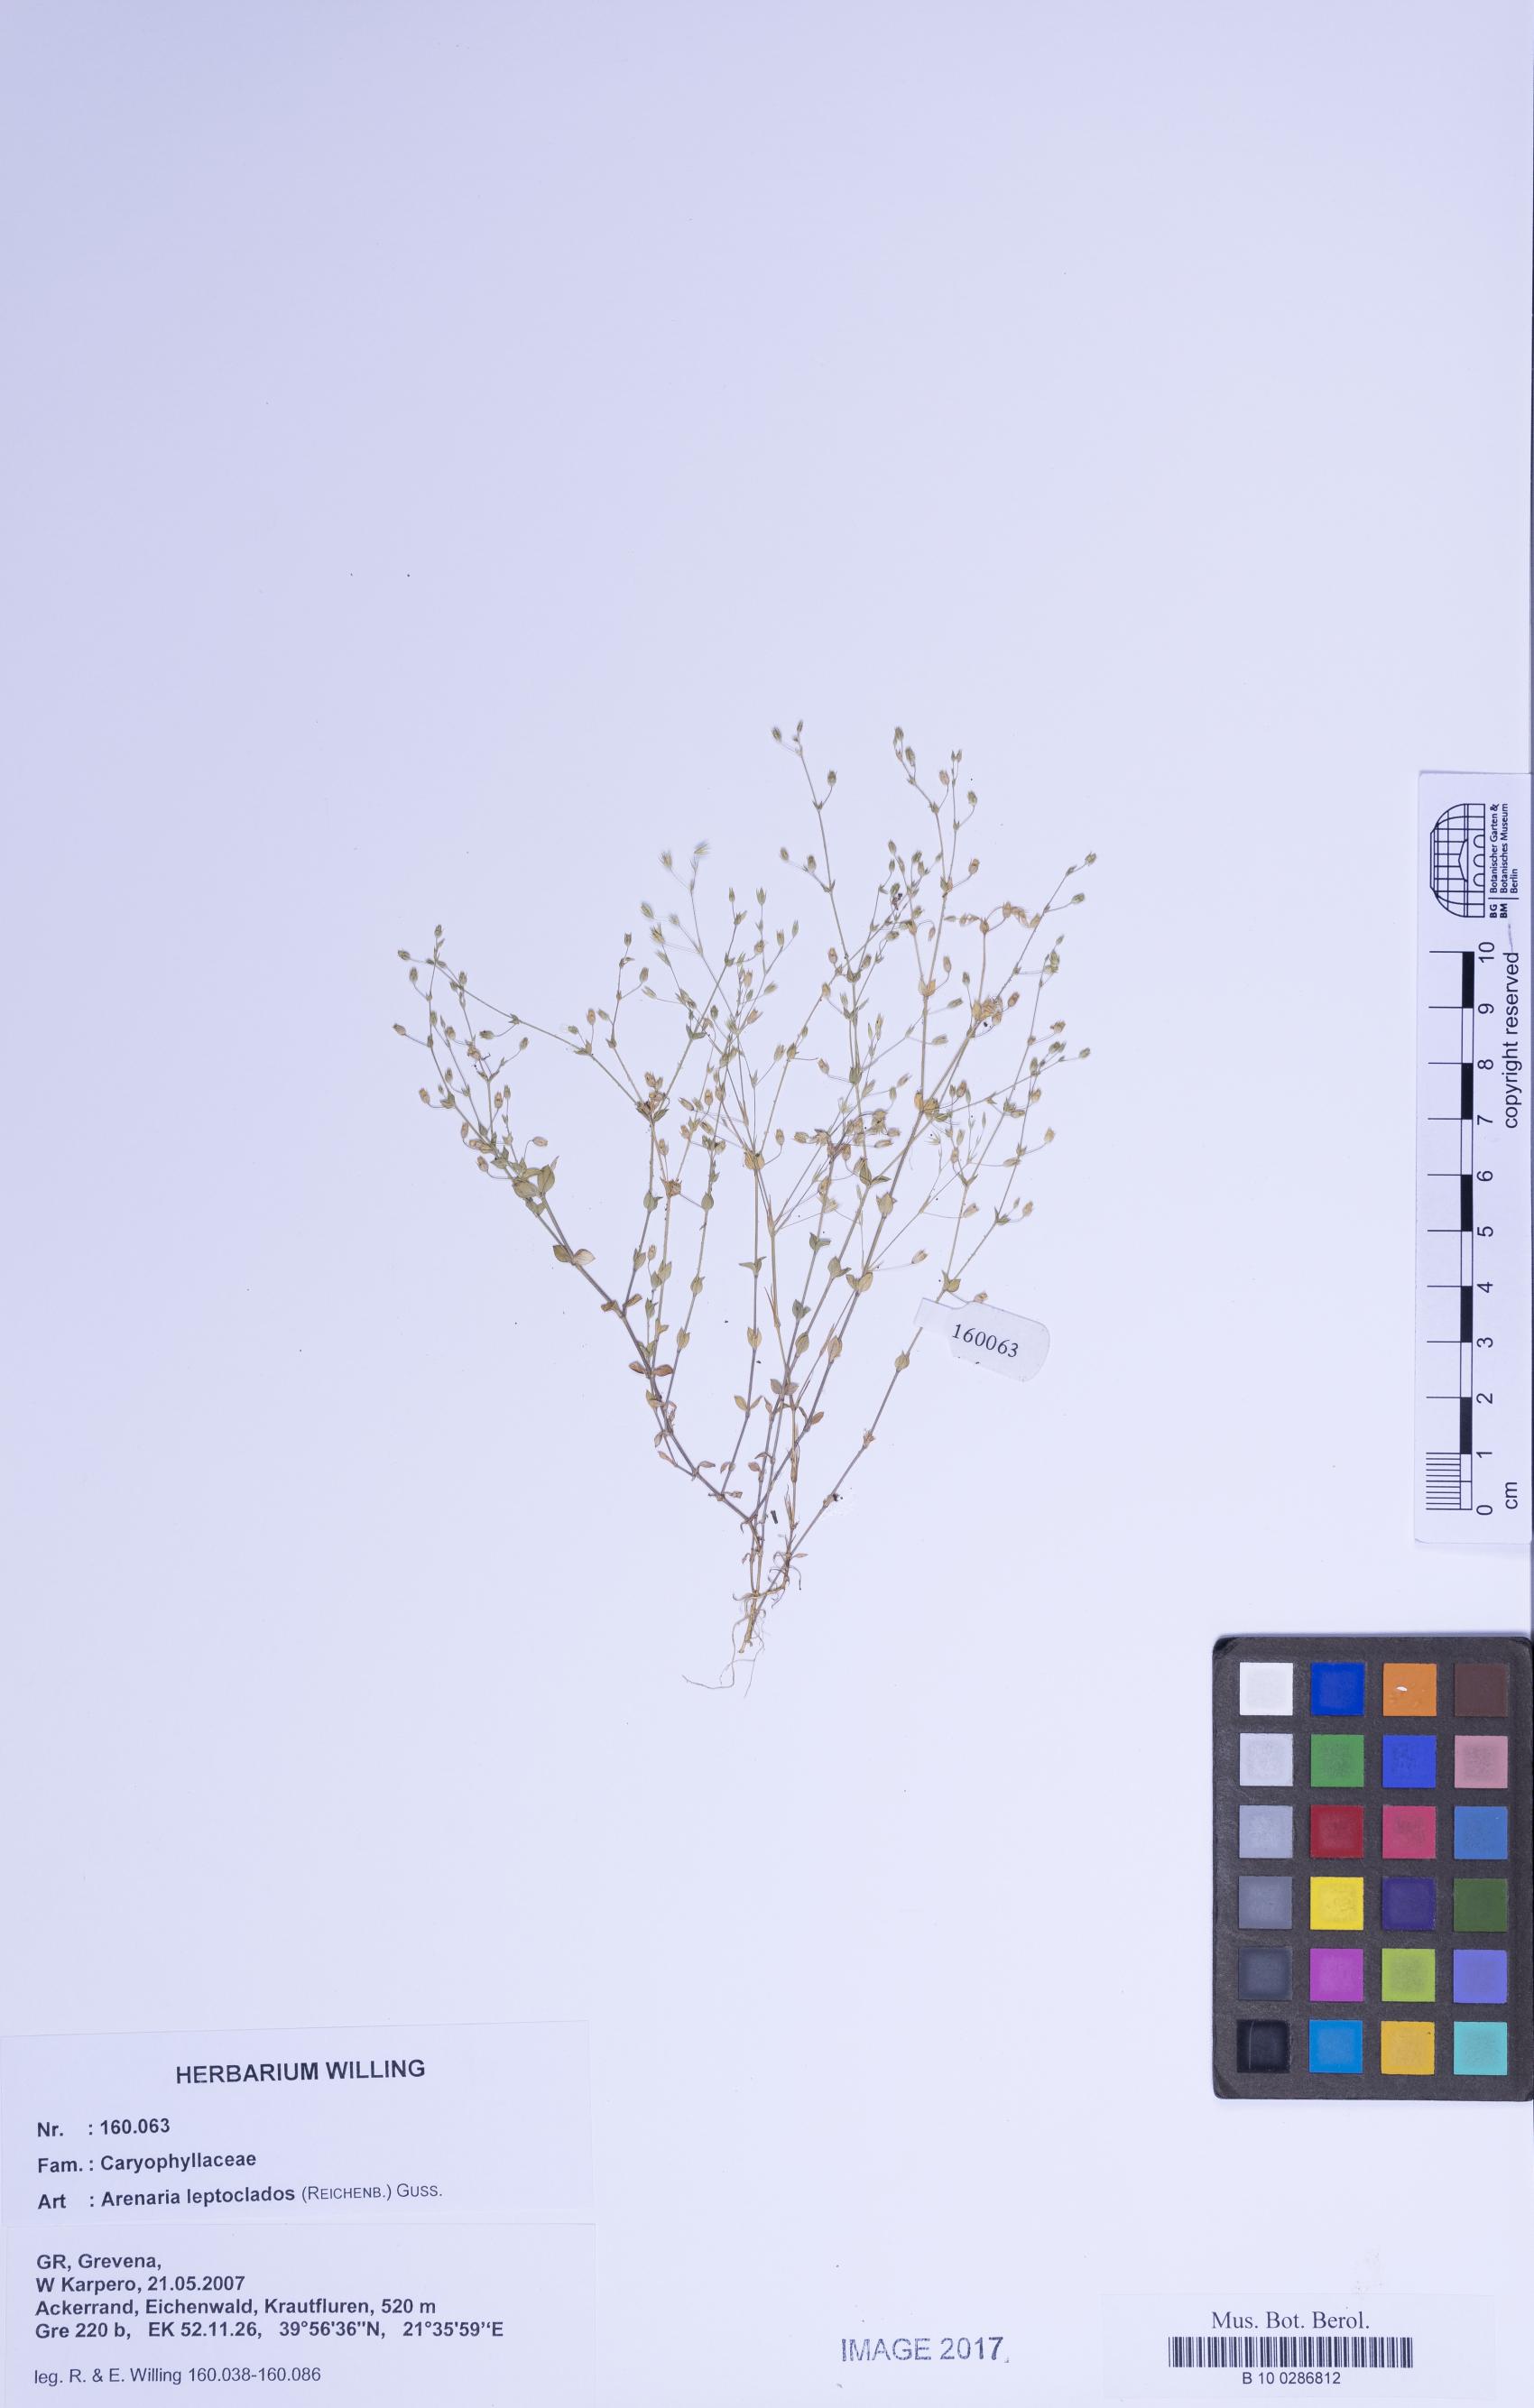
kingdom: Plantae
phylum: Tracheophyta
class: Magnoliopsida
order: Caryophyllales
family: Caryophyllaceae
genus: Arenaria
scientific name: Arenaria leptoclados
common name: Thyme-leaved sandwort
